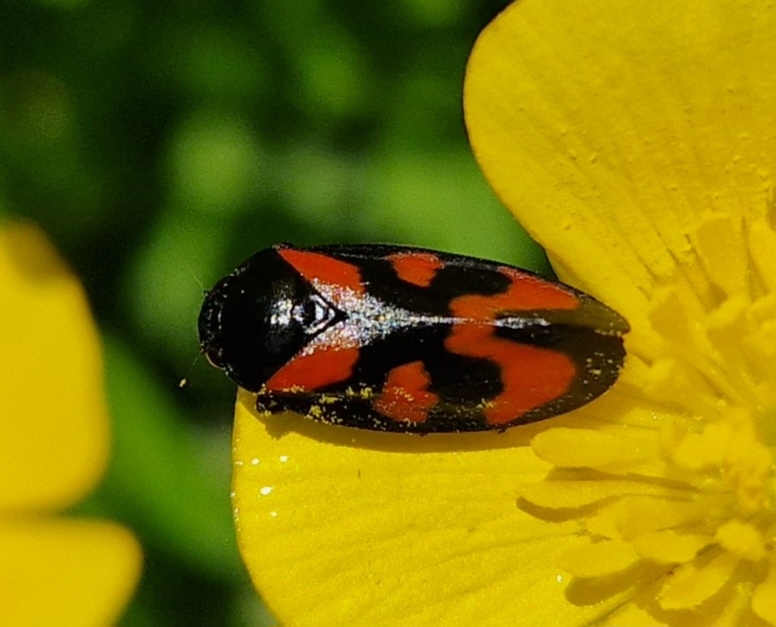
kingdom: Animalia
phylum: Arthropoda
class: Insecta
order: Hemiptera
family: Cercopidae
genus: Cercopis
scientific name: Cercopis vulnerata
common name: Blodcikade
